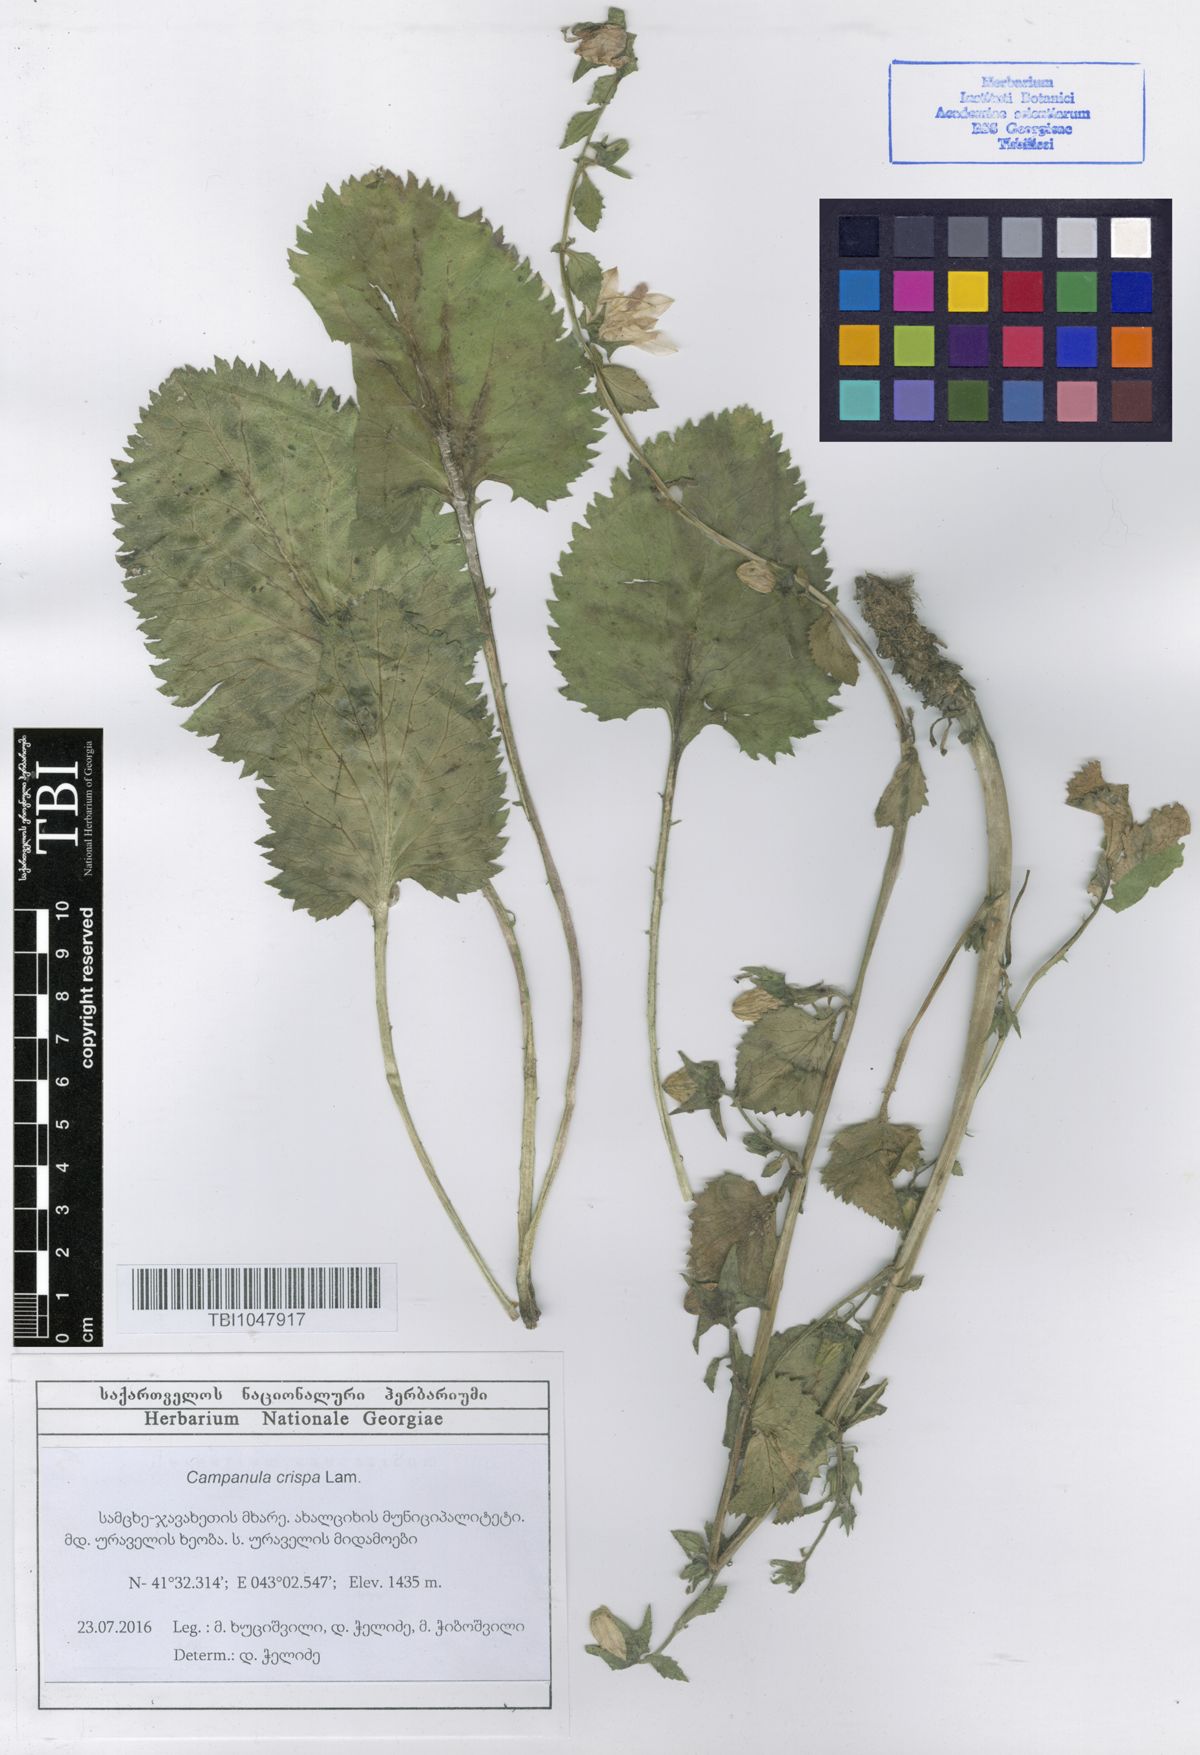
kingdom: Plantae
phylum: Tracheophyta
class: Magnoliopsida
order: Asterales
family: Campanulaceae
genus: Campanula
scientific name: Campanula crispa
